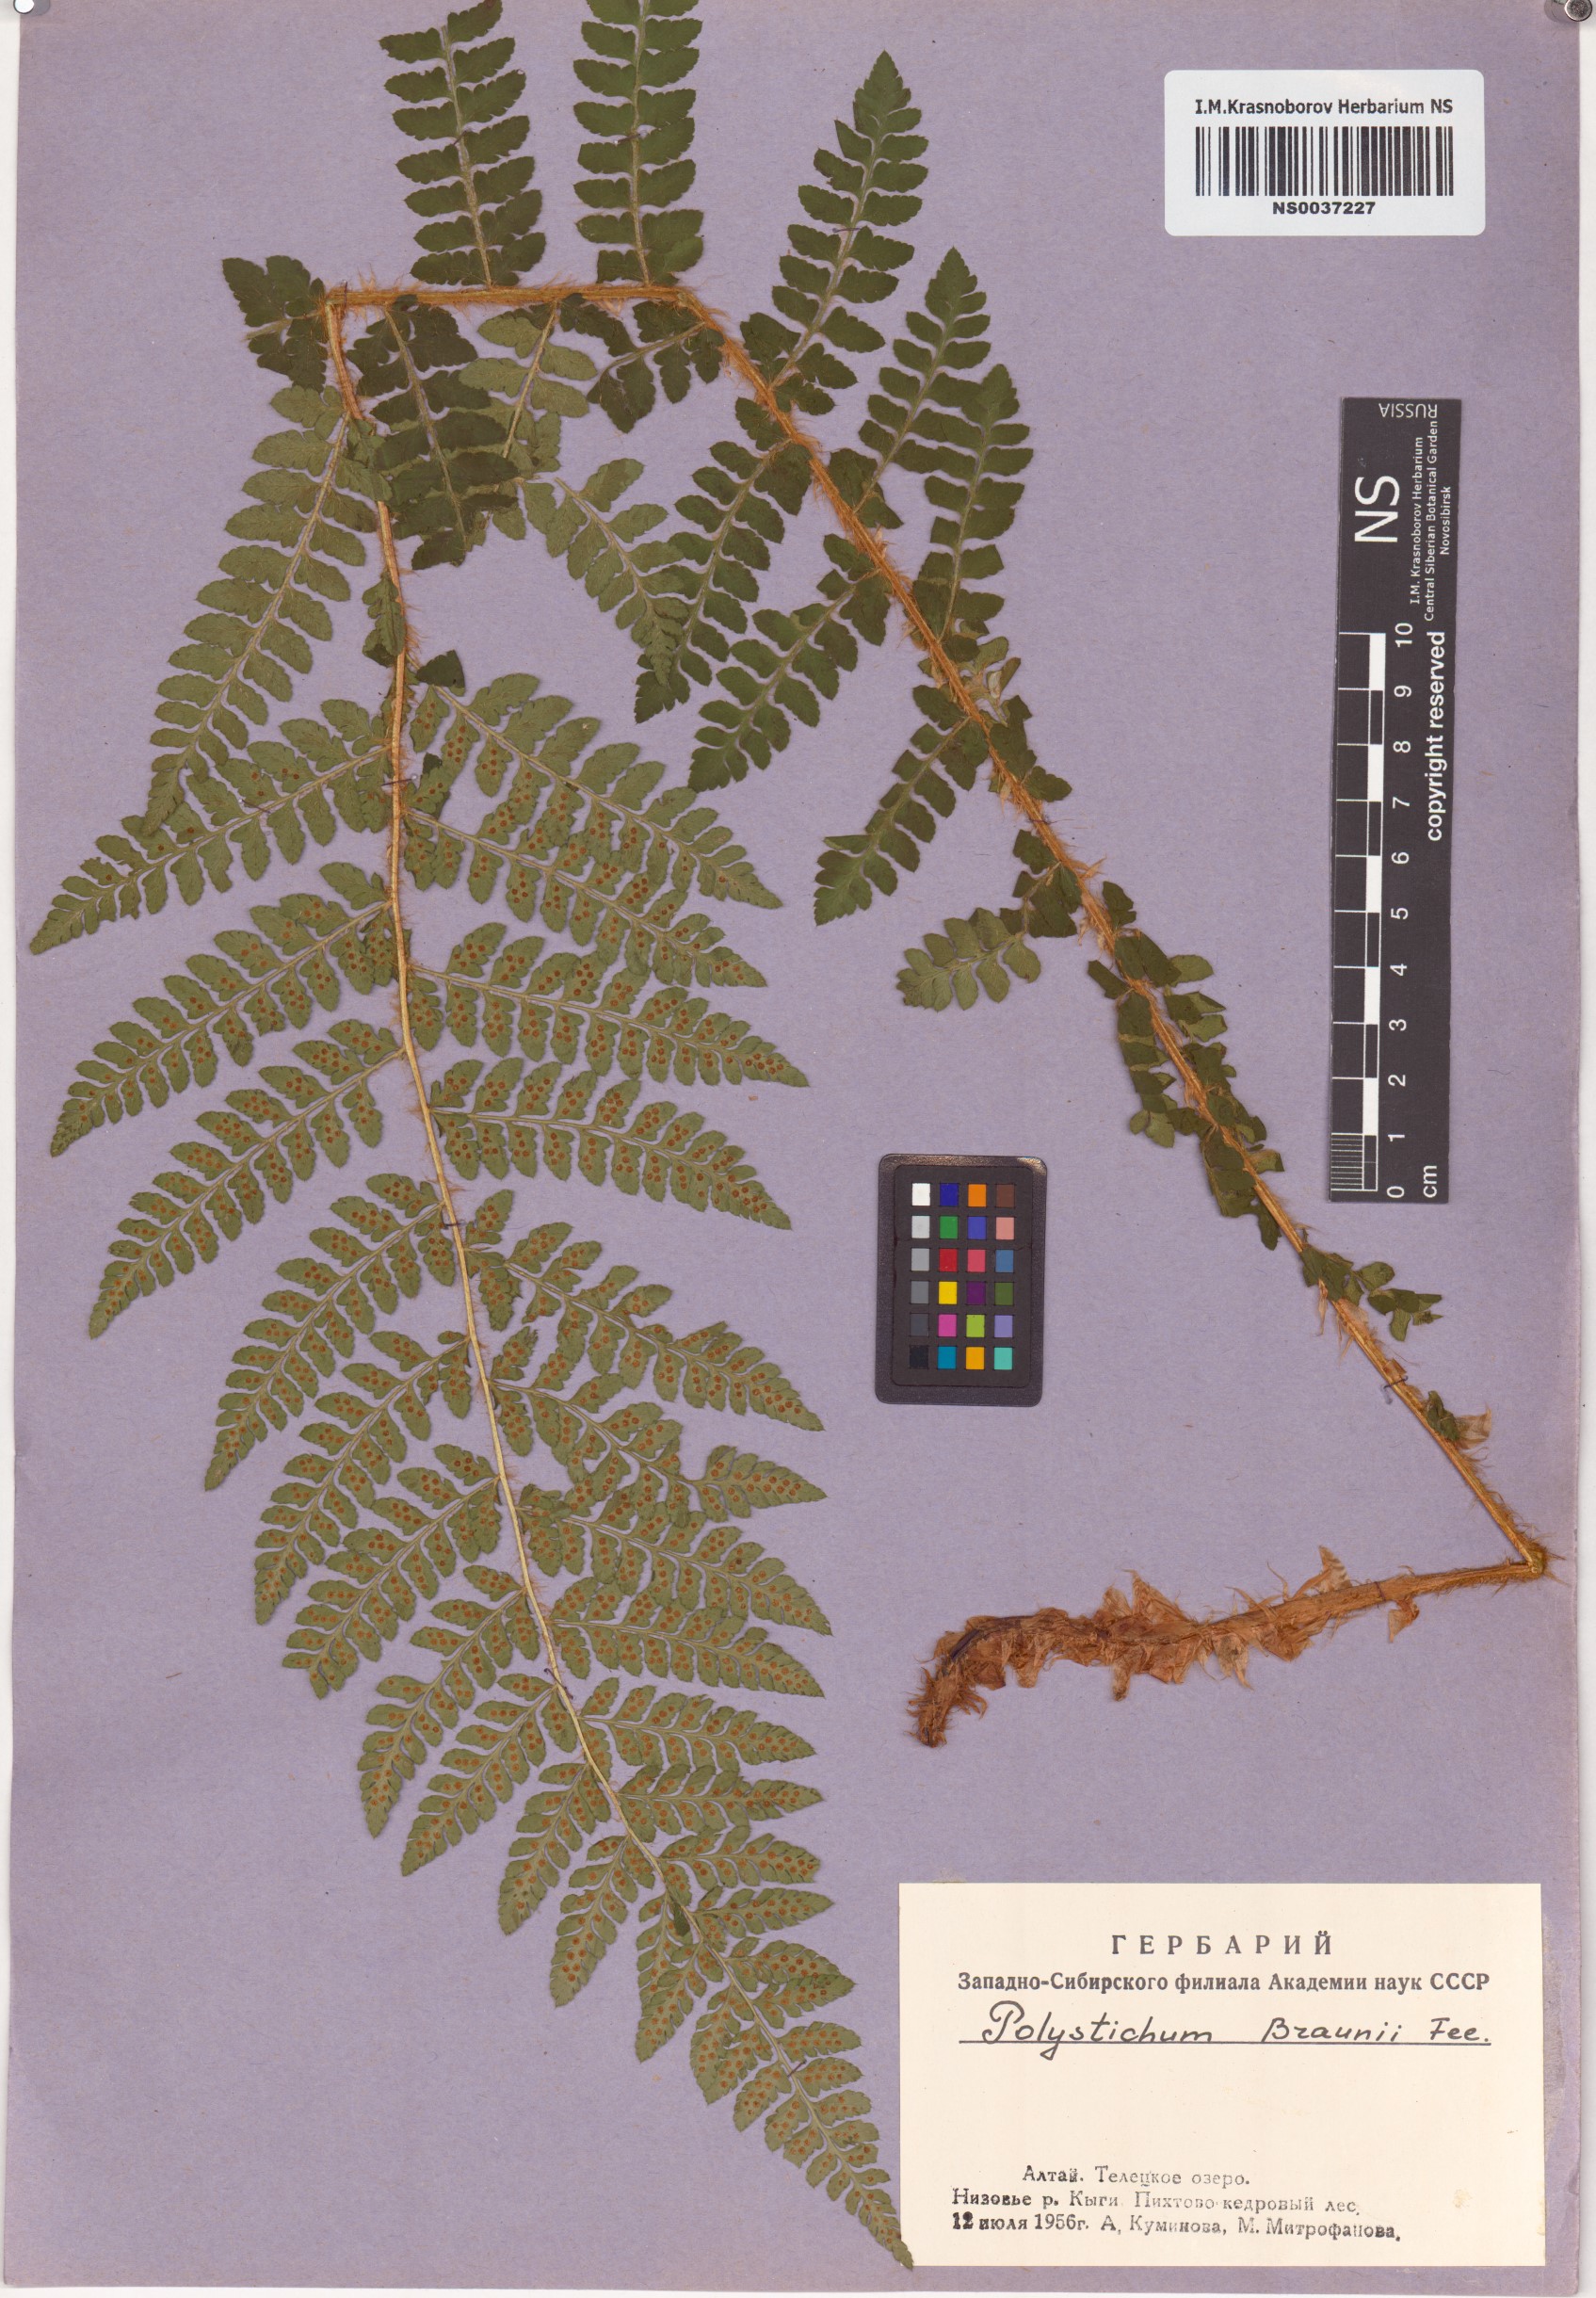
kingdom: Plantae
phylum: Tracheophyta
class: Polypodiopsida
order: Polypodiales
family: Dryopteridaceae
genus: Polystichum
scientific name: Polystichum braunii
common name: Braun's holly fern
